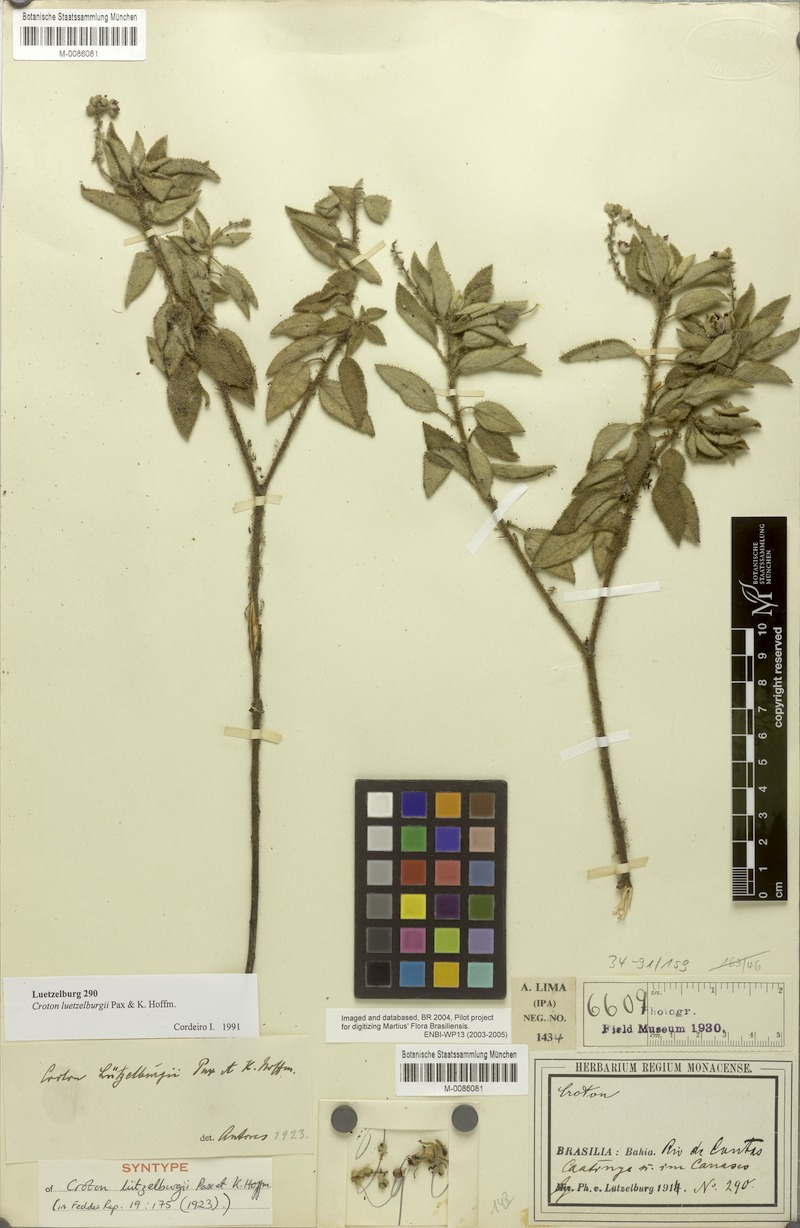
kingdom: Plantae
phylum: Tracheophyta
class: Magnoliopsida
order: Malpighiales
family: Euphorbiaceae
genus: Croton
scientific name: Croton heliotropiifolius
